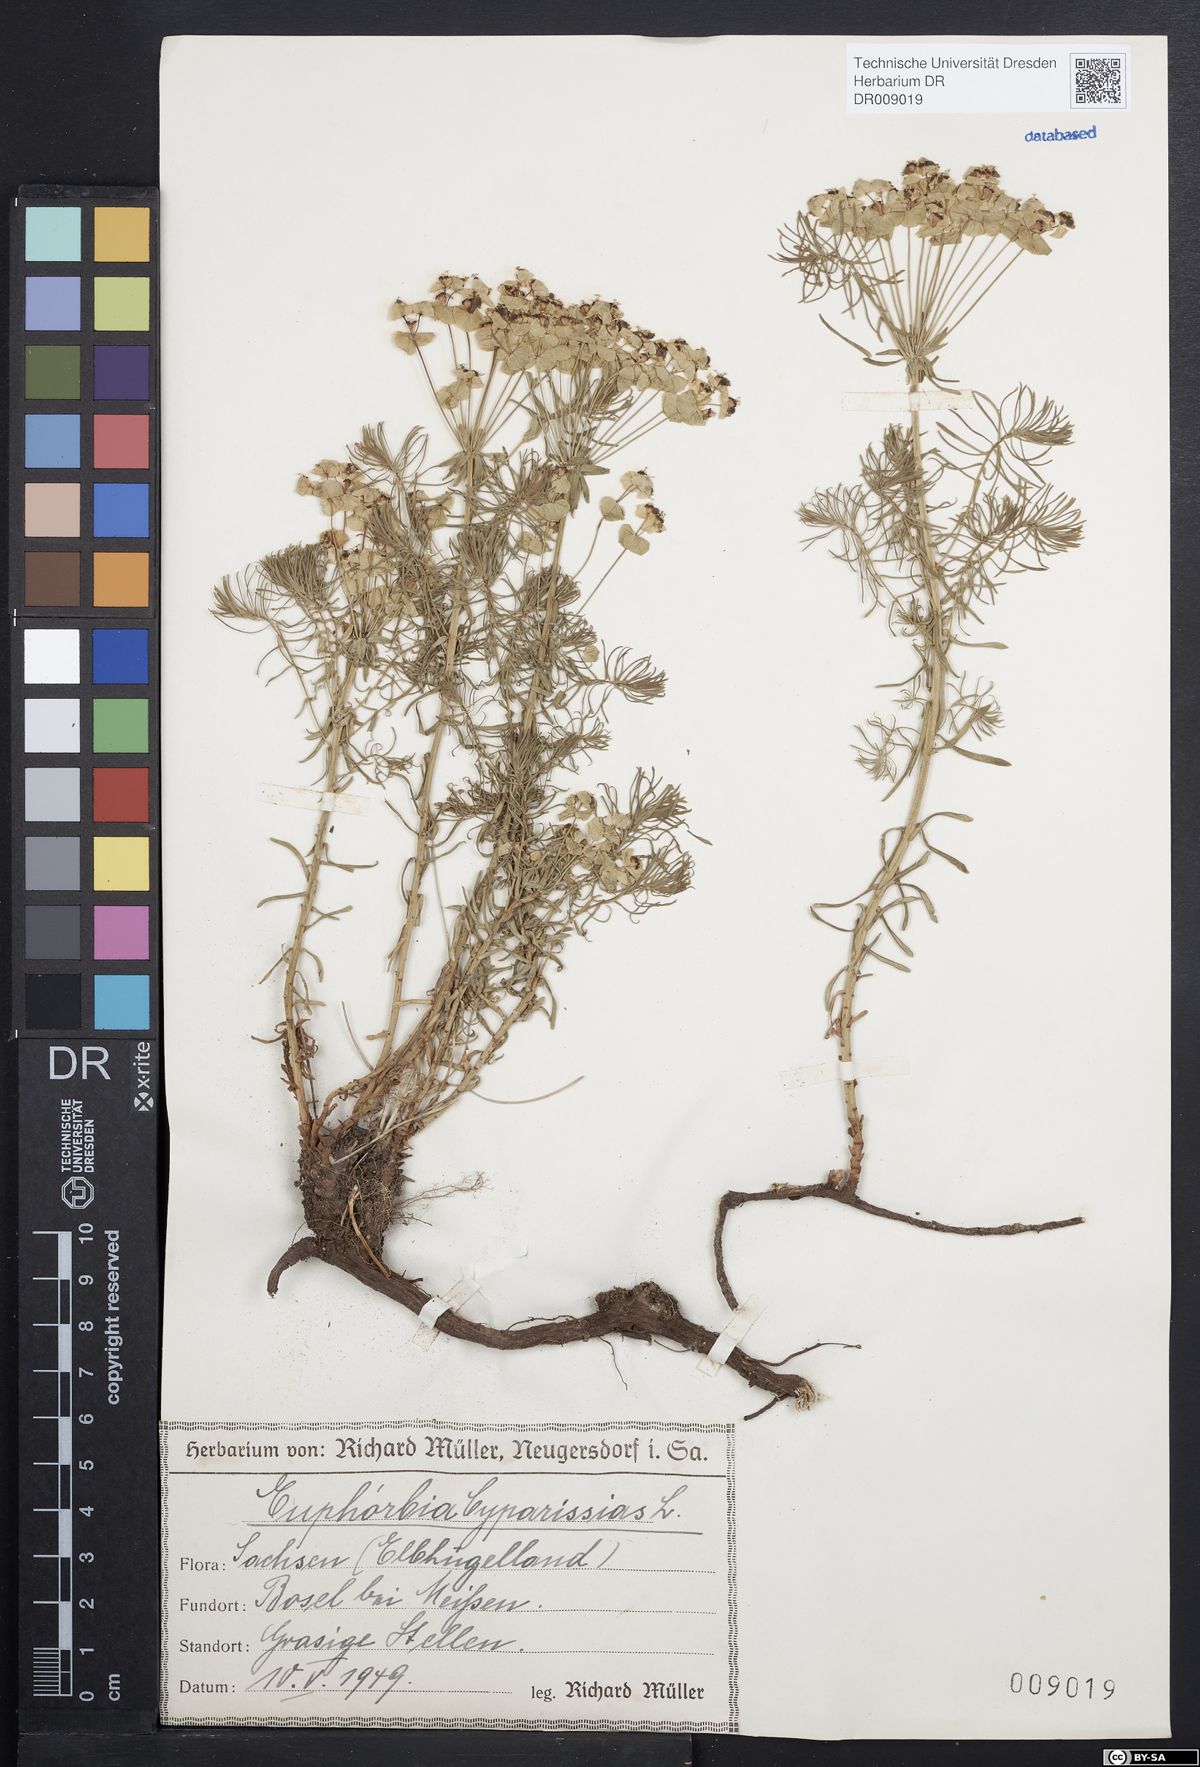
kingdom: Plantae
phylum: Tracheophyta
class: Magnoliopsida
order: Malpighiales
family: Euphorbiaceae
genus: Euphorbia
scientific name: Euphorbia cyparissias
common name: Cypress spurge
